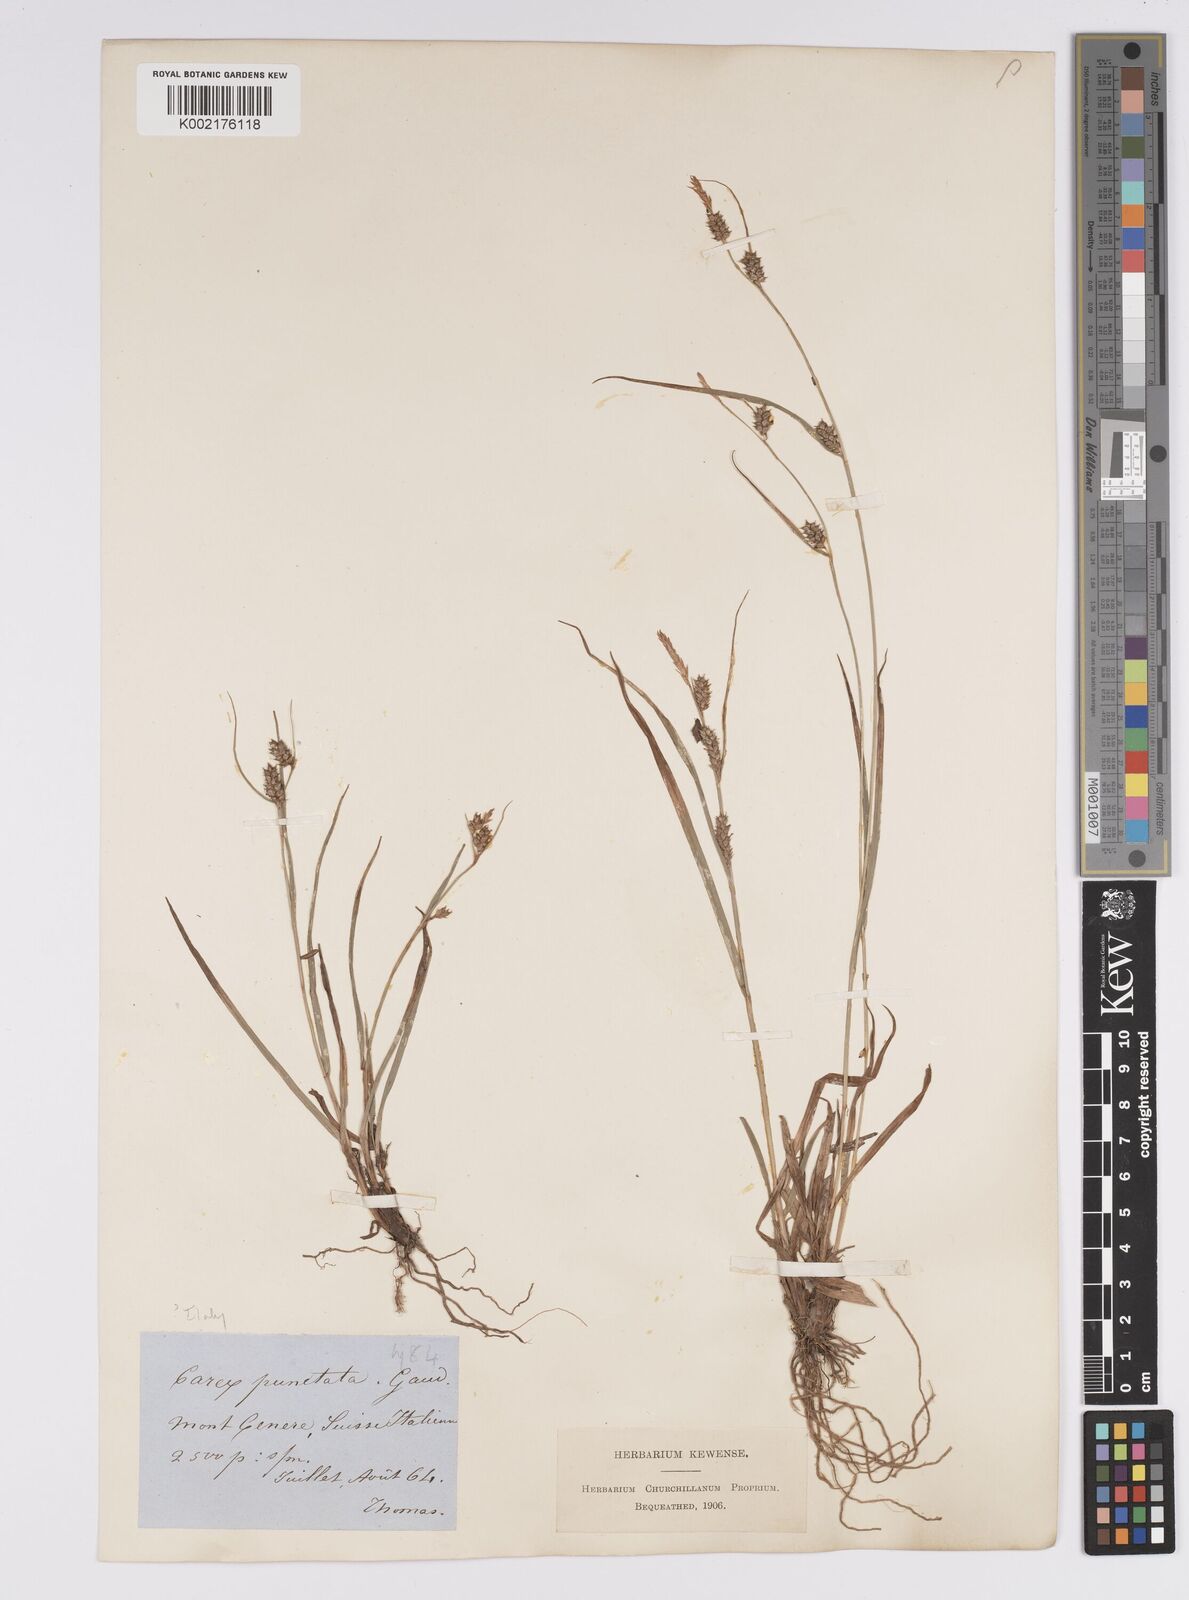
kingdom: Plantae
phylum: Tracheophyta
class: Liliopsida
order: Poales
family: Cyperaceae
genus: Carex
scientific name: Carex punctata
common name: Dotted sedge
